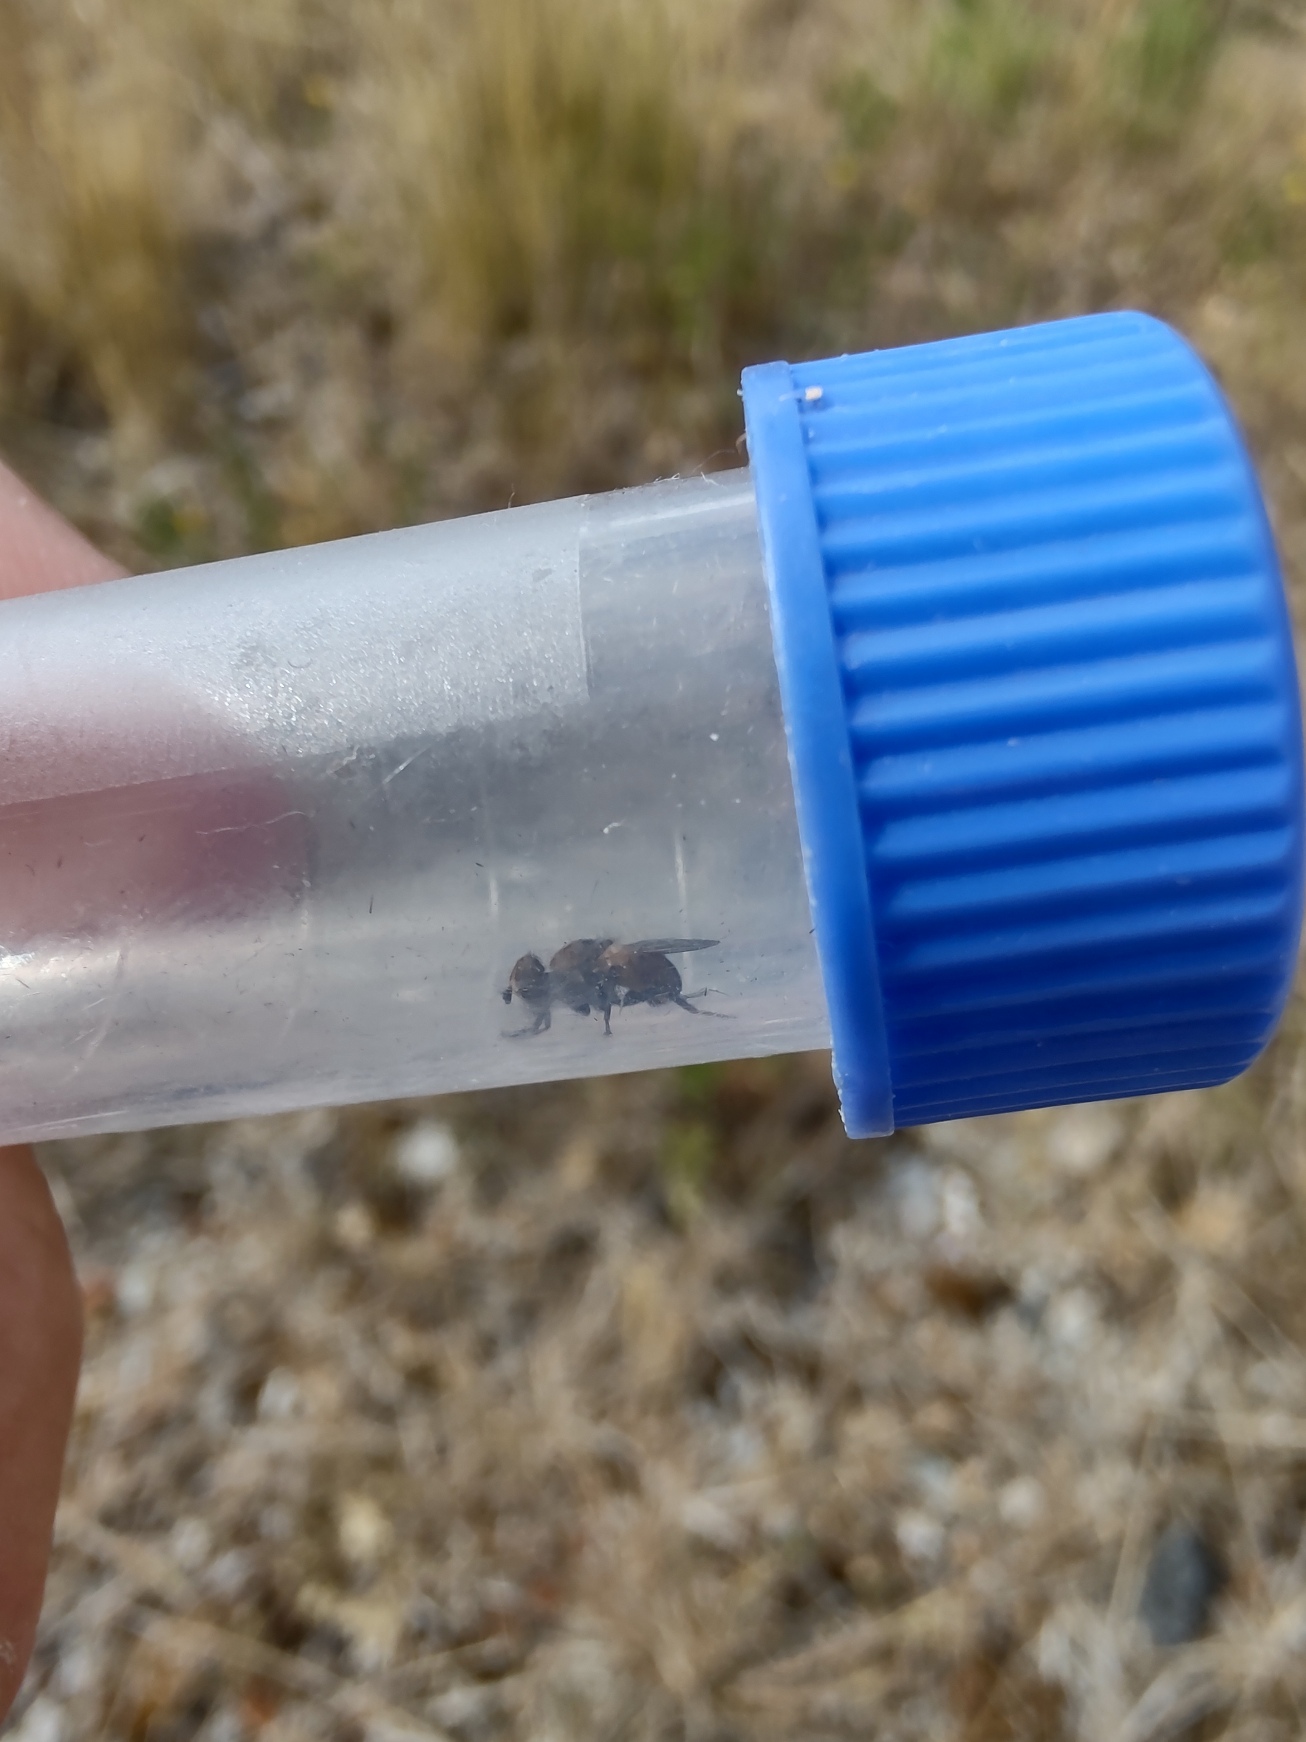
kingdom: Animalia
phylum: Arthropoda
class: Insecta
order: Diptera
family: Tachinidae
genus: Cistogaster
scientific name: Cistogaster globosa
